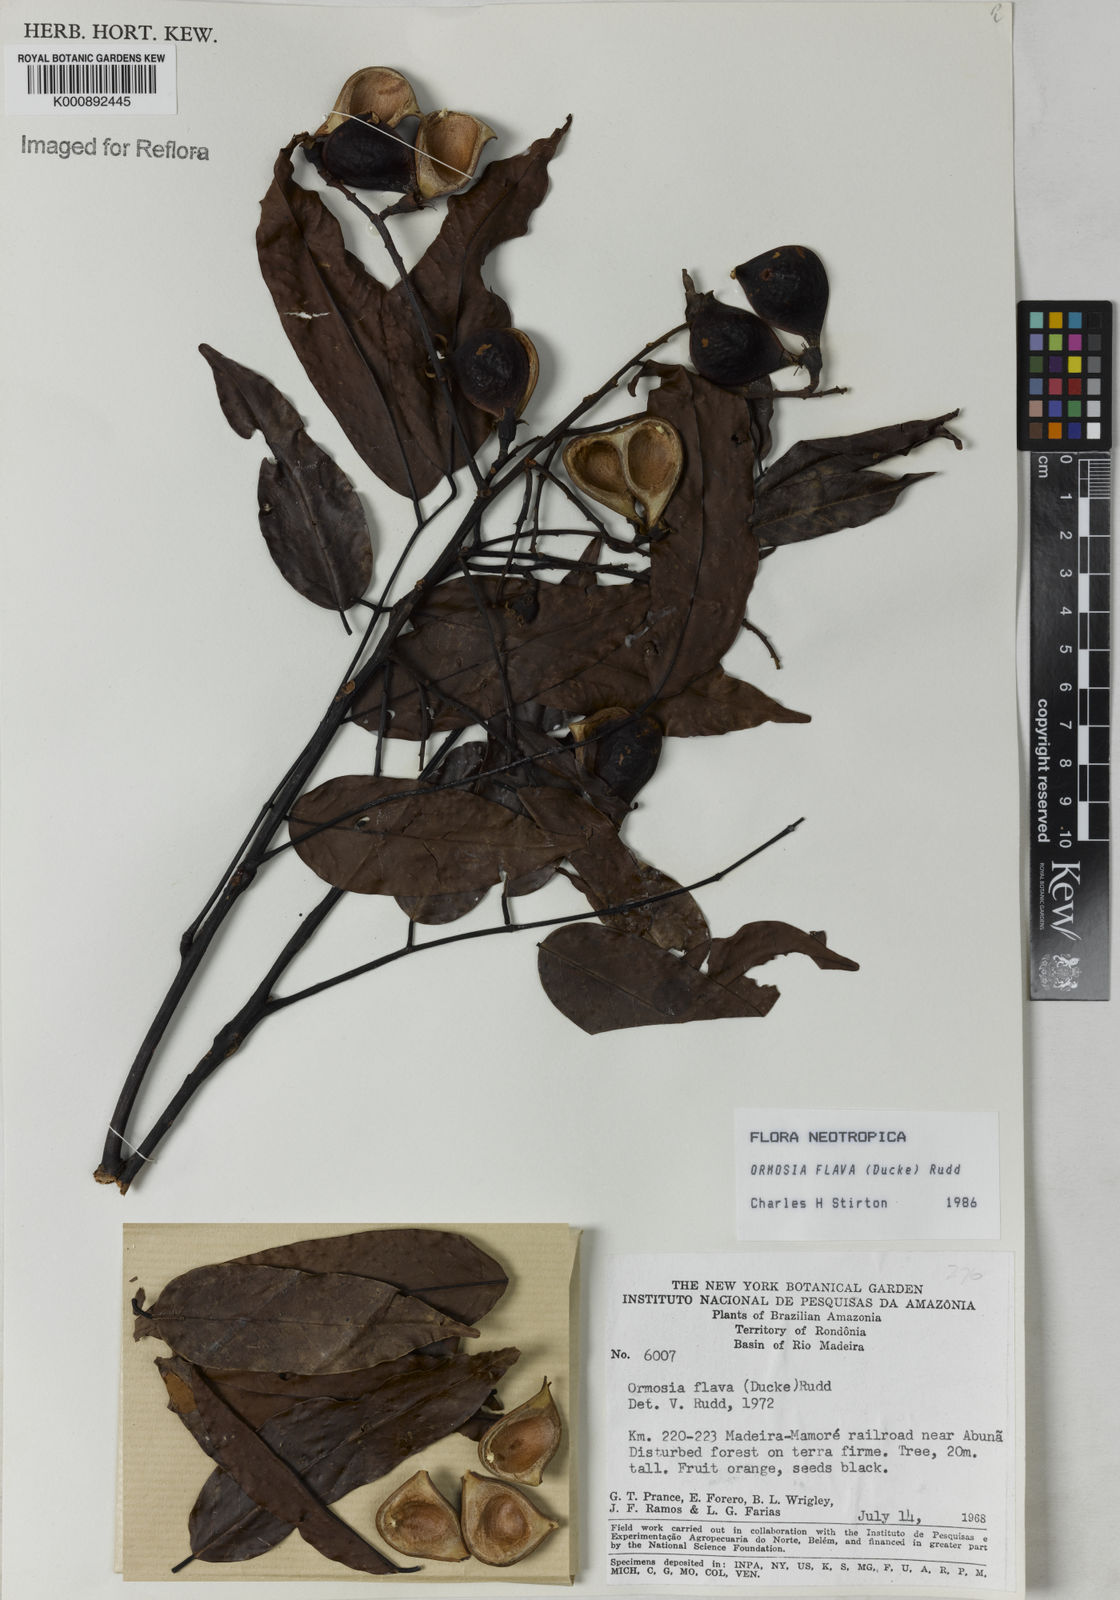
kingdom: Plantae
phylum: Tracheophyta
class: Magnoliopsida
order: Fabales
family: Fabaceae
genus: Ormosia
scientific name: Ormosia flava
